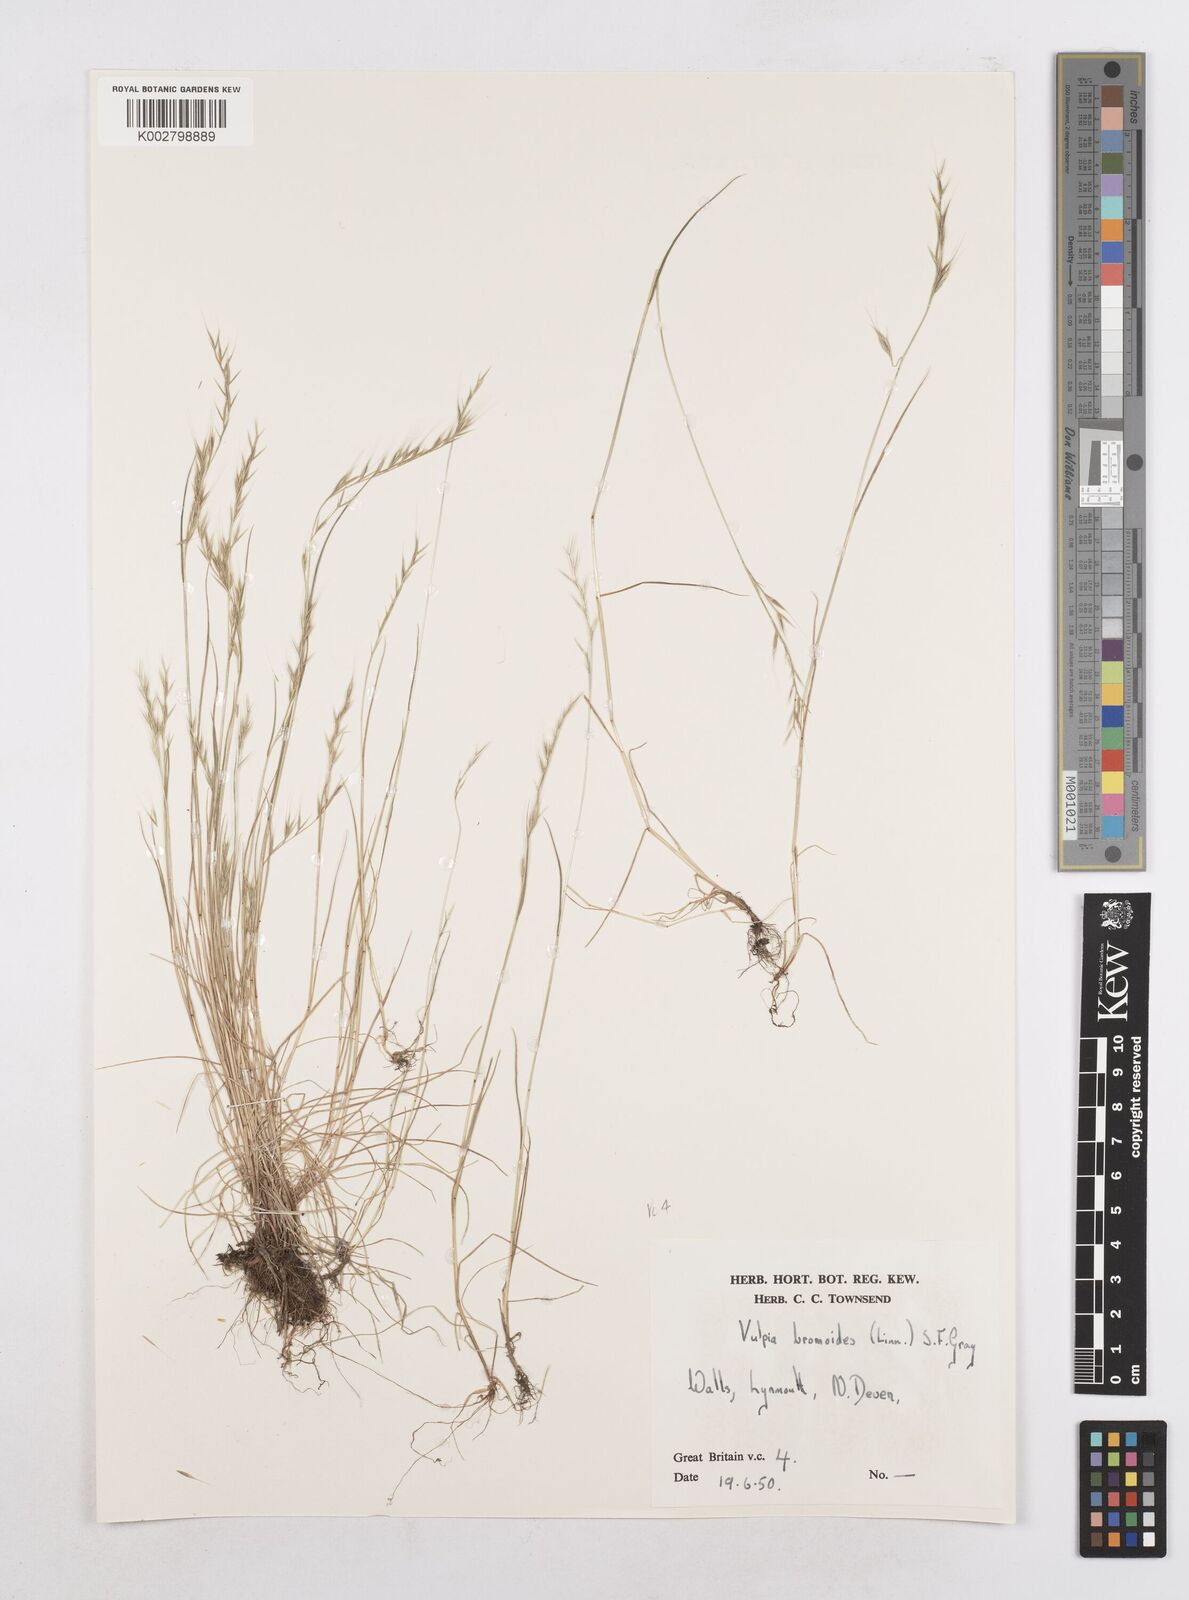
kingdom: Plantae
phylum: Tracheophyta
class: Liliopsida
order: Poales
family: Poaceae
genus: Festuca
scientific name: Festuca bromoides
